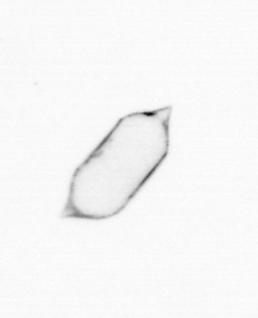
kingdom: Chromista
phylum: Ochrophyta
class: Bacillariophyceae
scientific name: Bacillariophyceae
